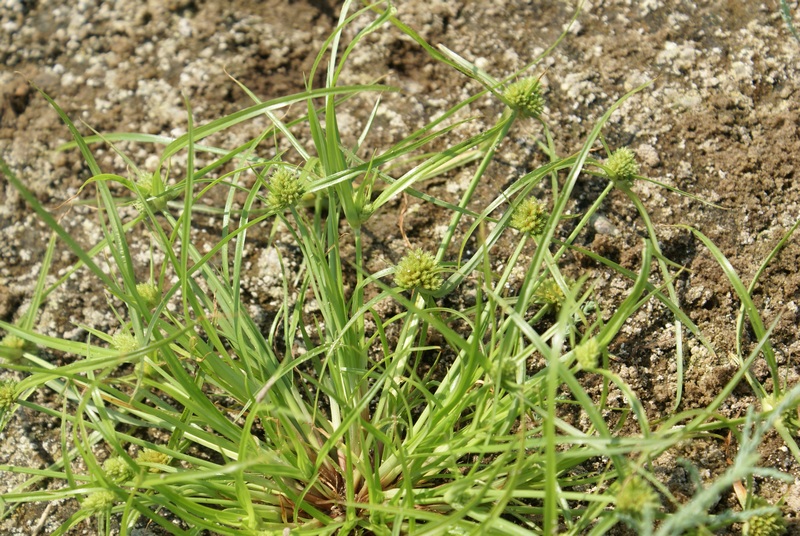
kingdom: Plantae
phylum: Tracheophyta
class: Liliopsida
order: Poales
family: Cyperaceae
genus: Cyperus
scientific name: Cyperus michelianus
